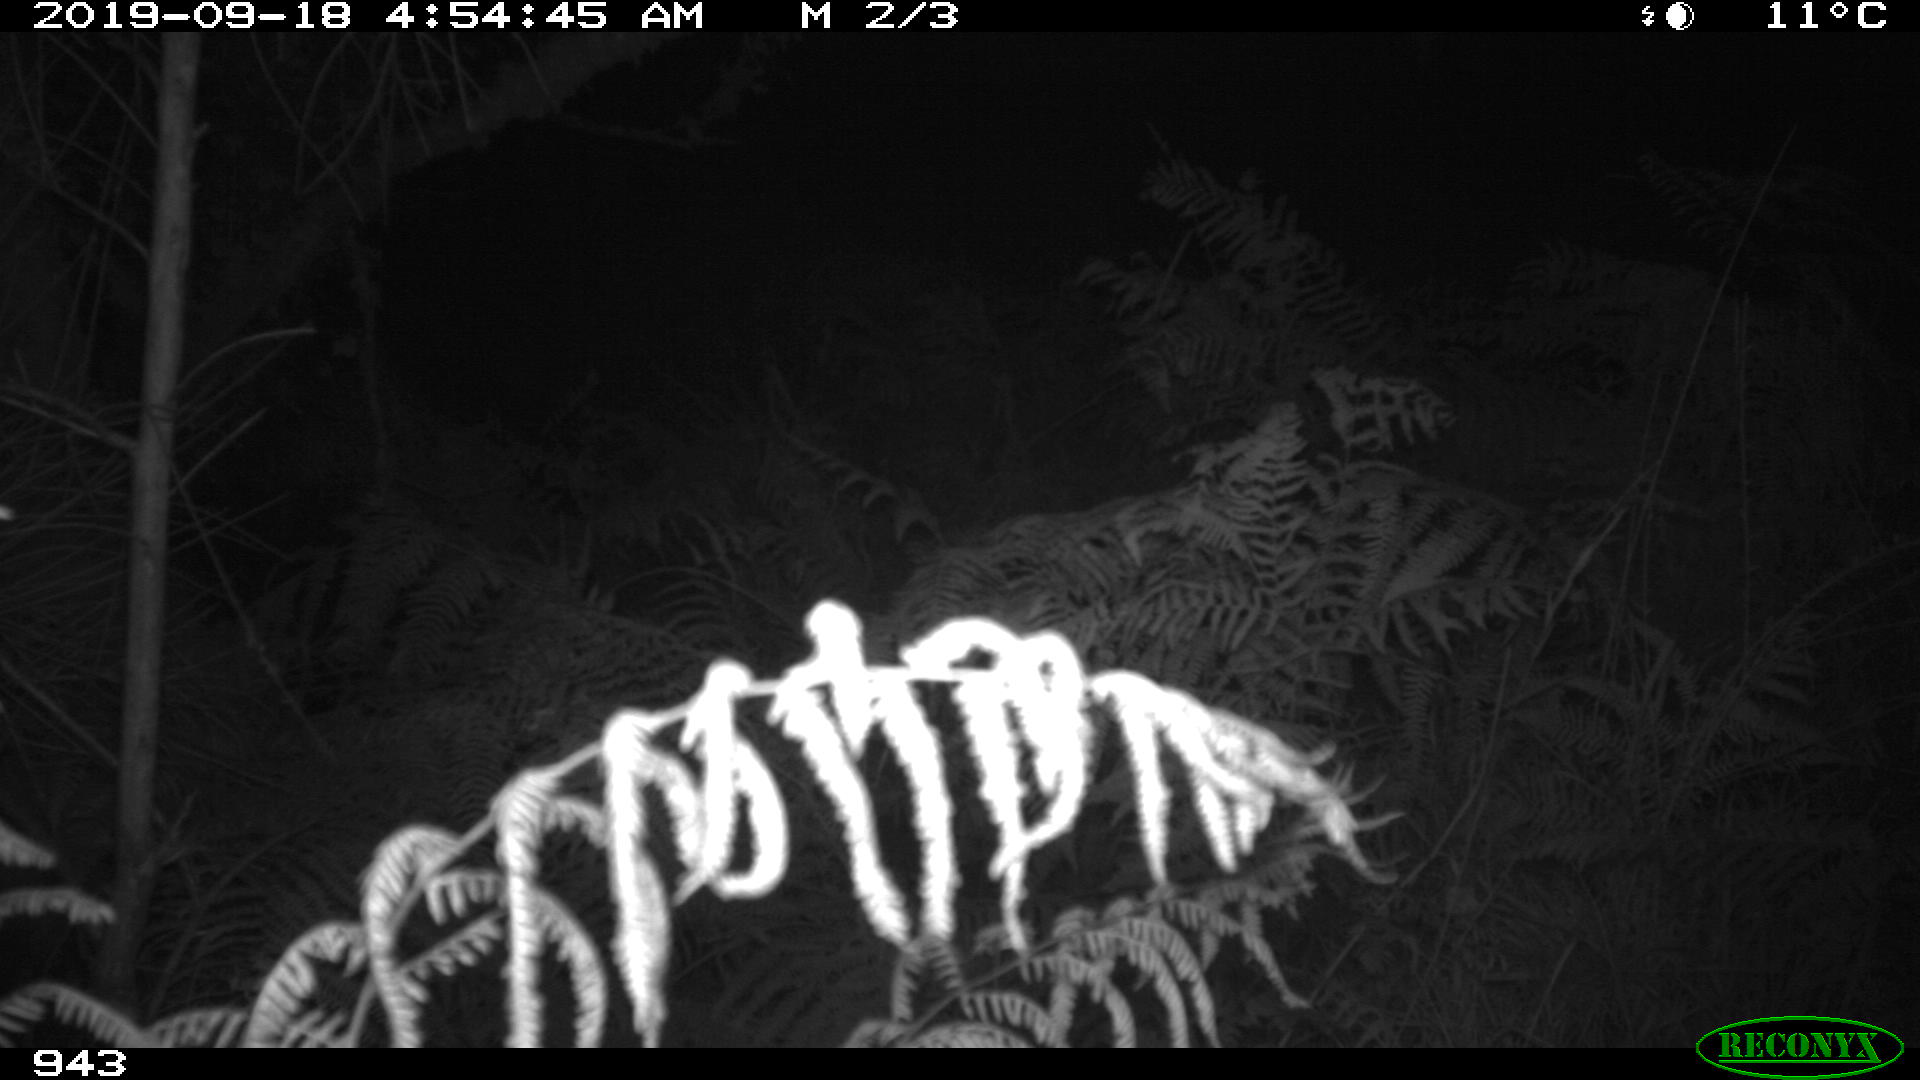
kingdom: Animalia
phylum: Chordata
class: Mammalia
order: Artiodactyla
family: Suidae
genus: Sus
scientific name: Sus scrofa
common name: Wild boar
